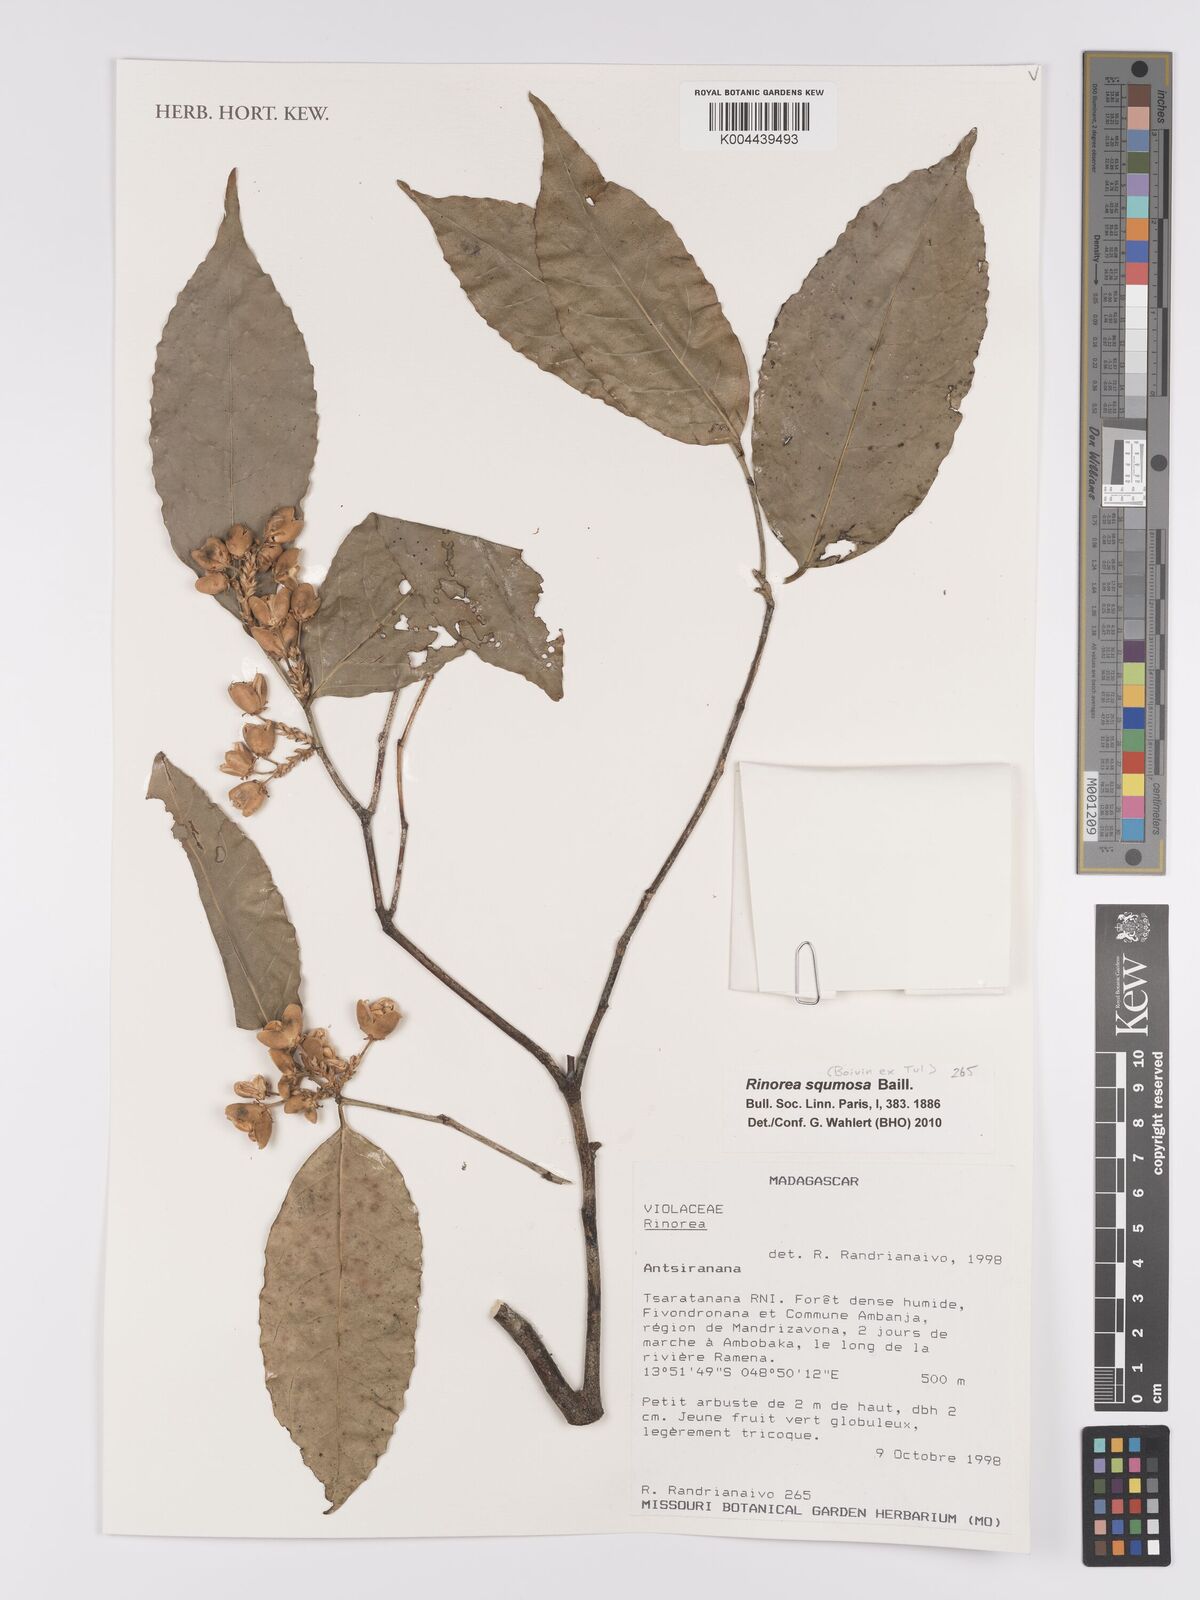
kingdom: Plantae
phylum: Tracheophyta
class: Magnoliopsida
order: Malpighiales
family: Violaceae
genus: Rinorea
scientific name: Rinorea squamosa
